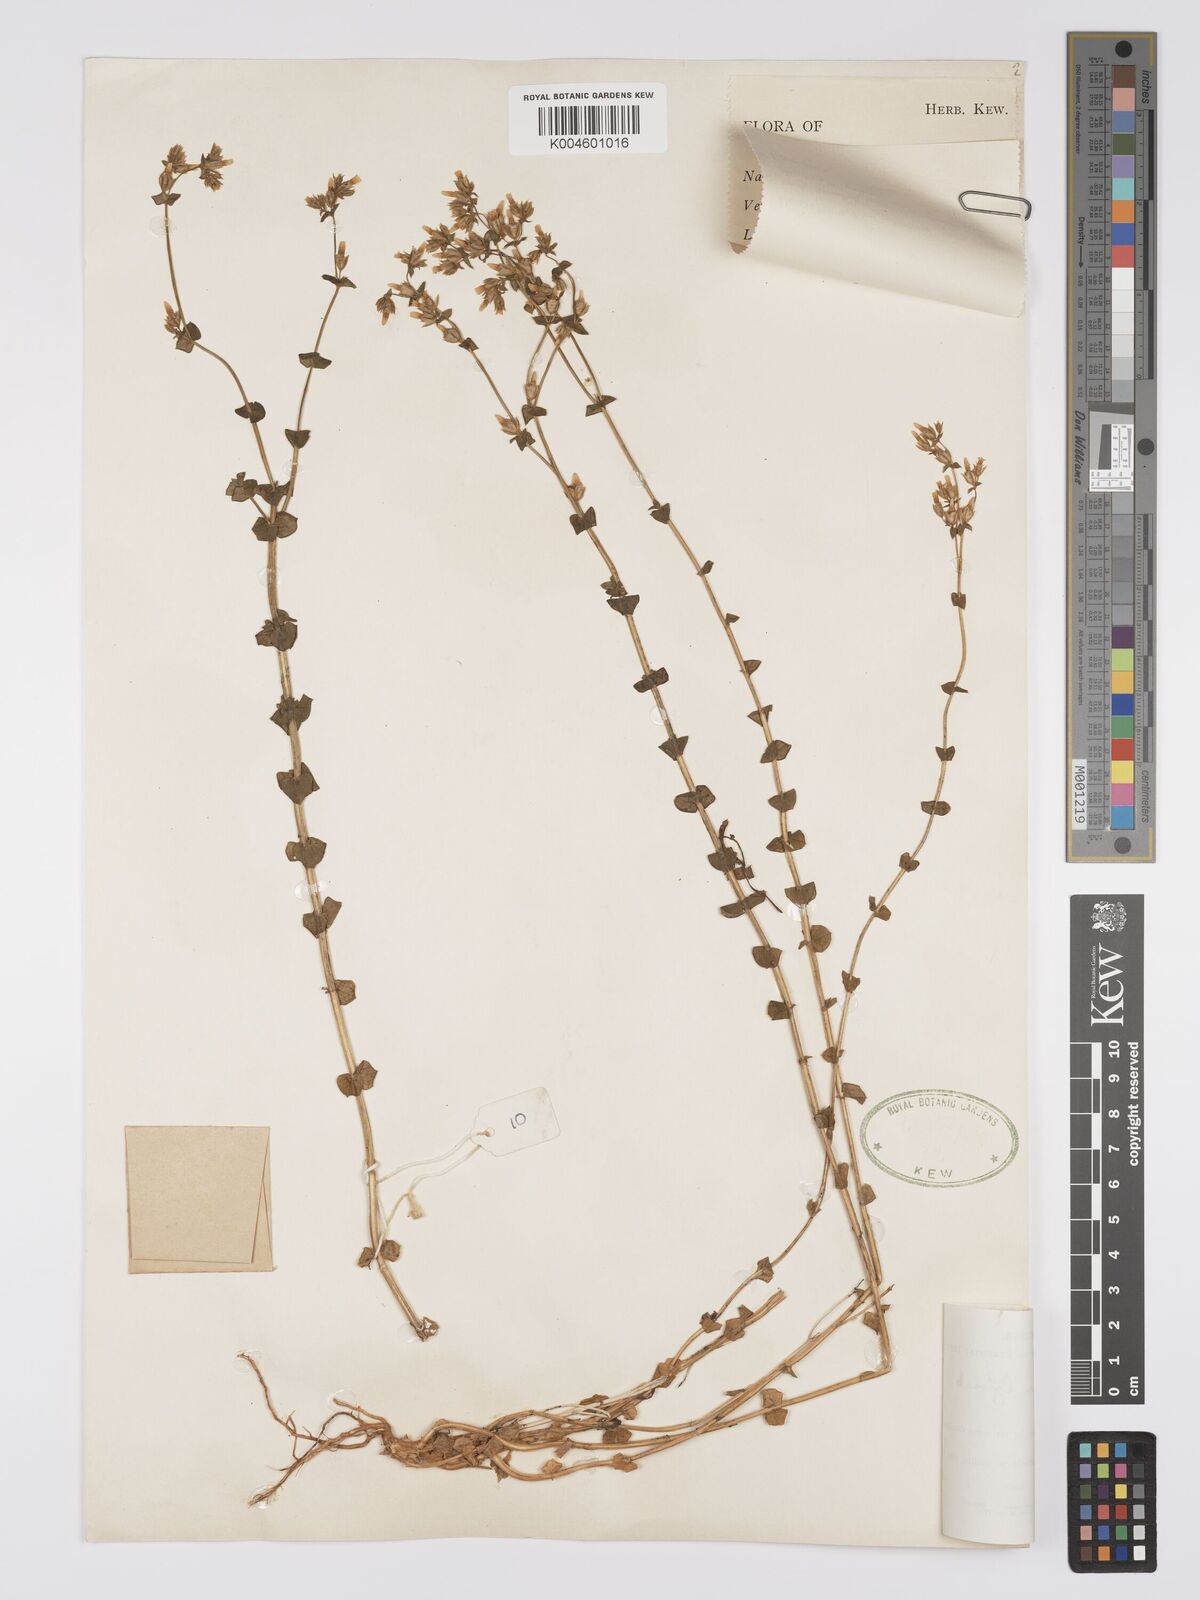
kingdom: Plantae
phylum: Tracheophyta
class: Magnoliopsida
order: Gentianales
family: Gentianaceae
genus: Sebaea
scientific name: Sebaea brachyphylla
